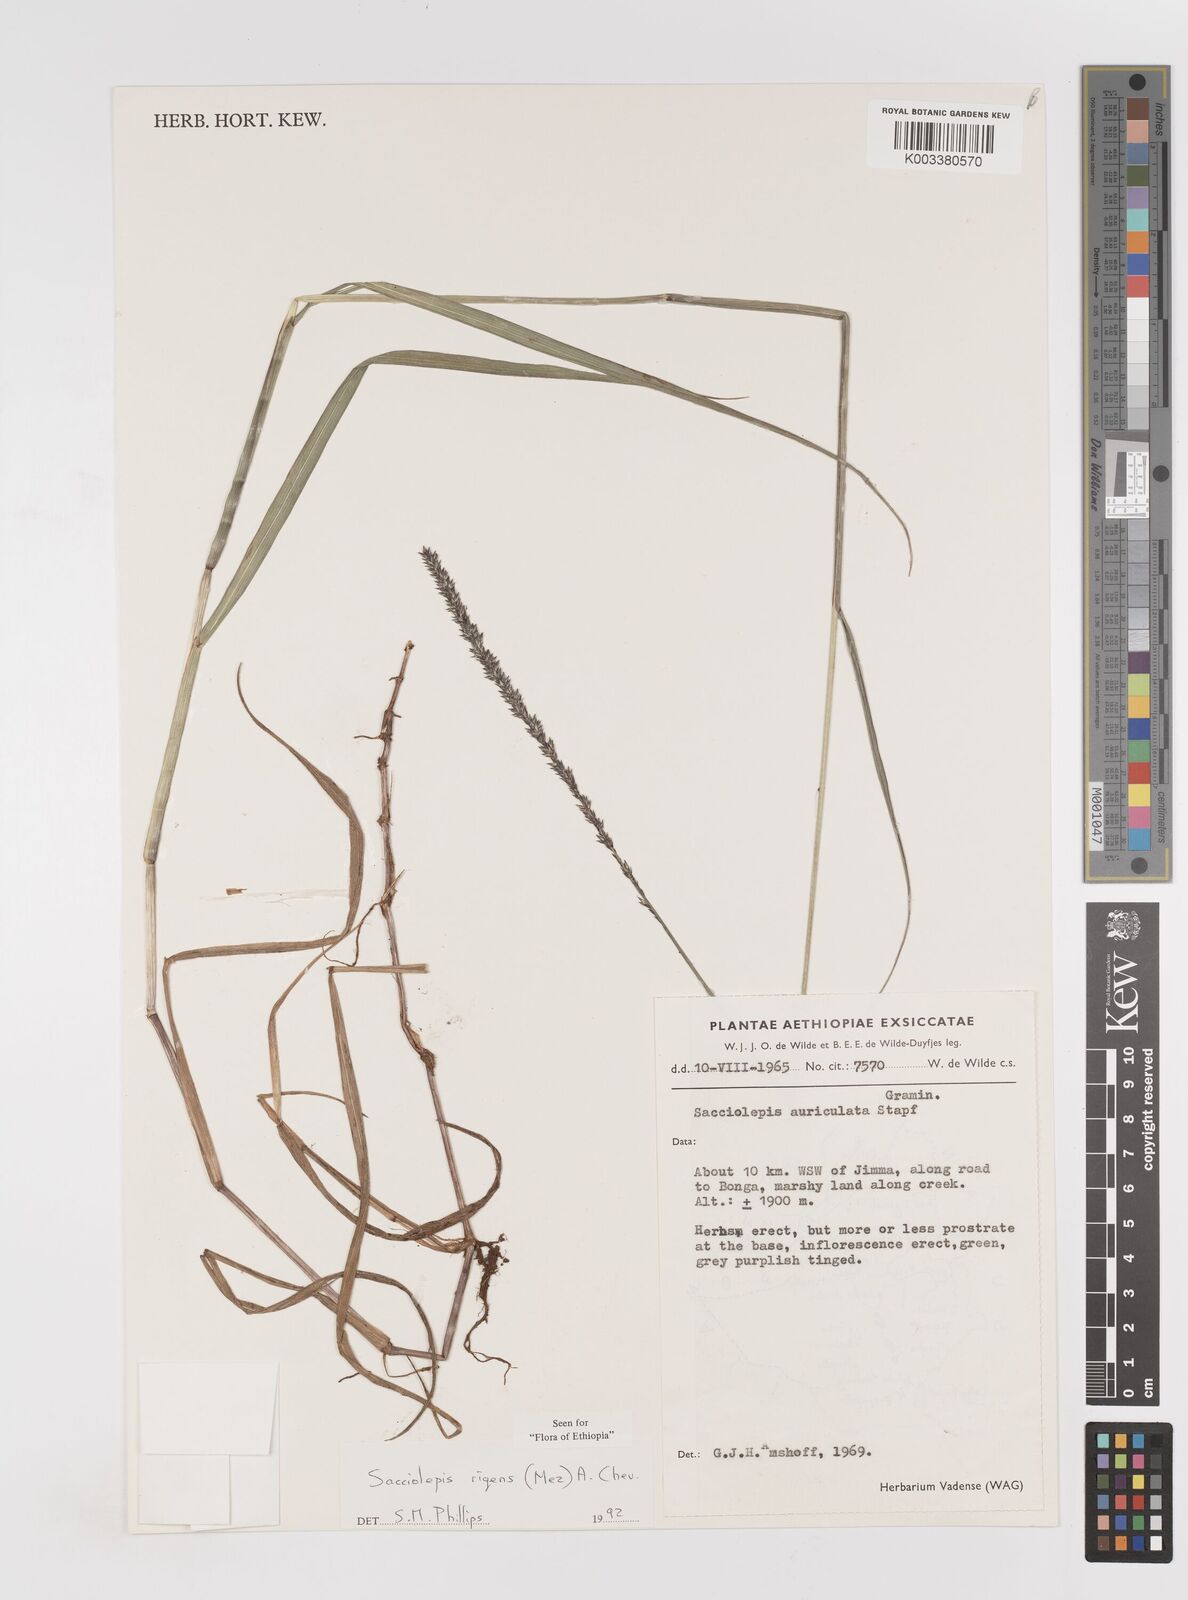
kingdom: Plantae
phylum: Tracheophyta
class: Liliopsida
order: Poales
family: Poaceae
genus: Sacciolepis
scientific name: Sacciolepis leptorrhachis
